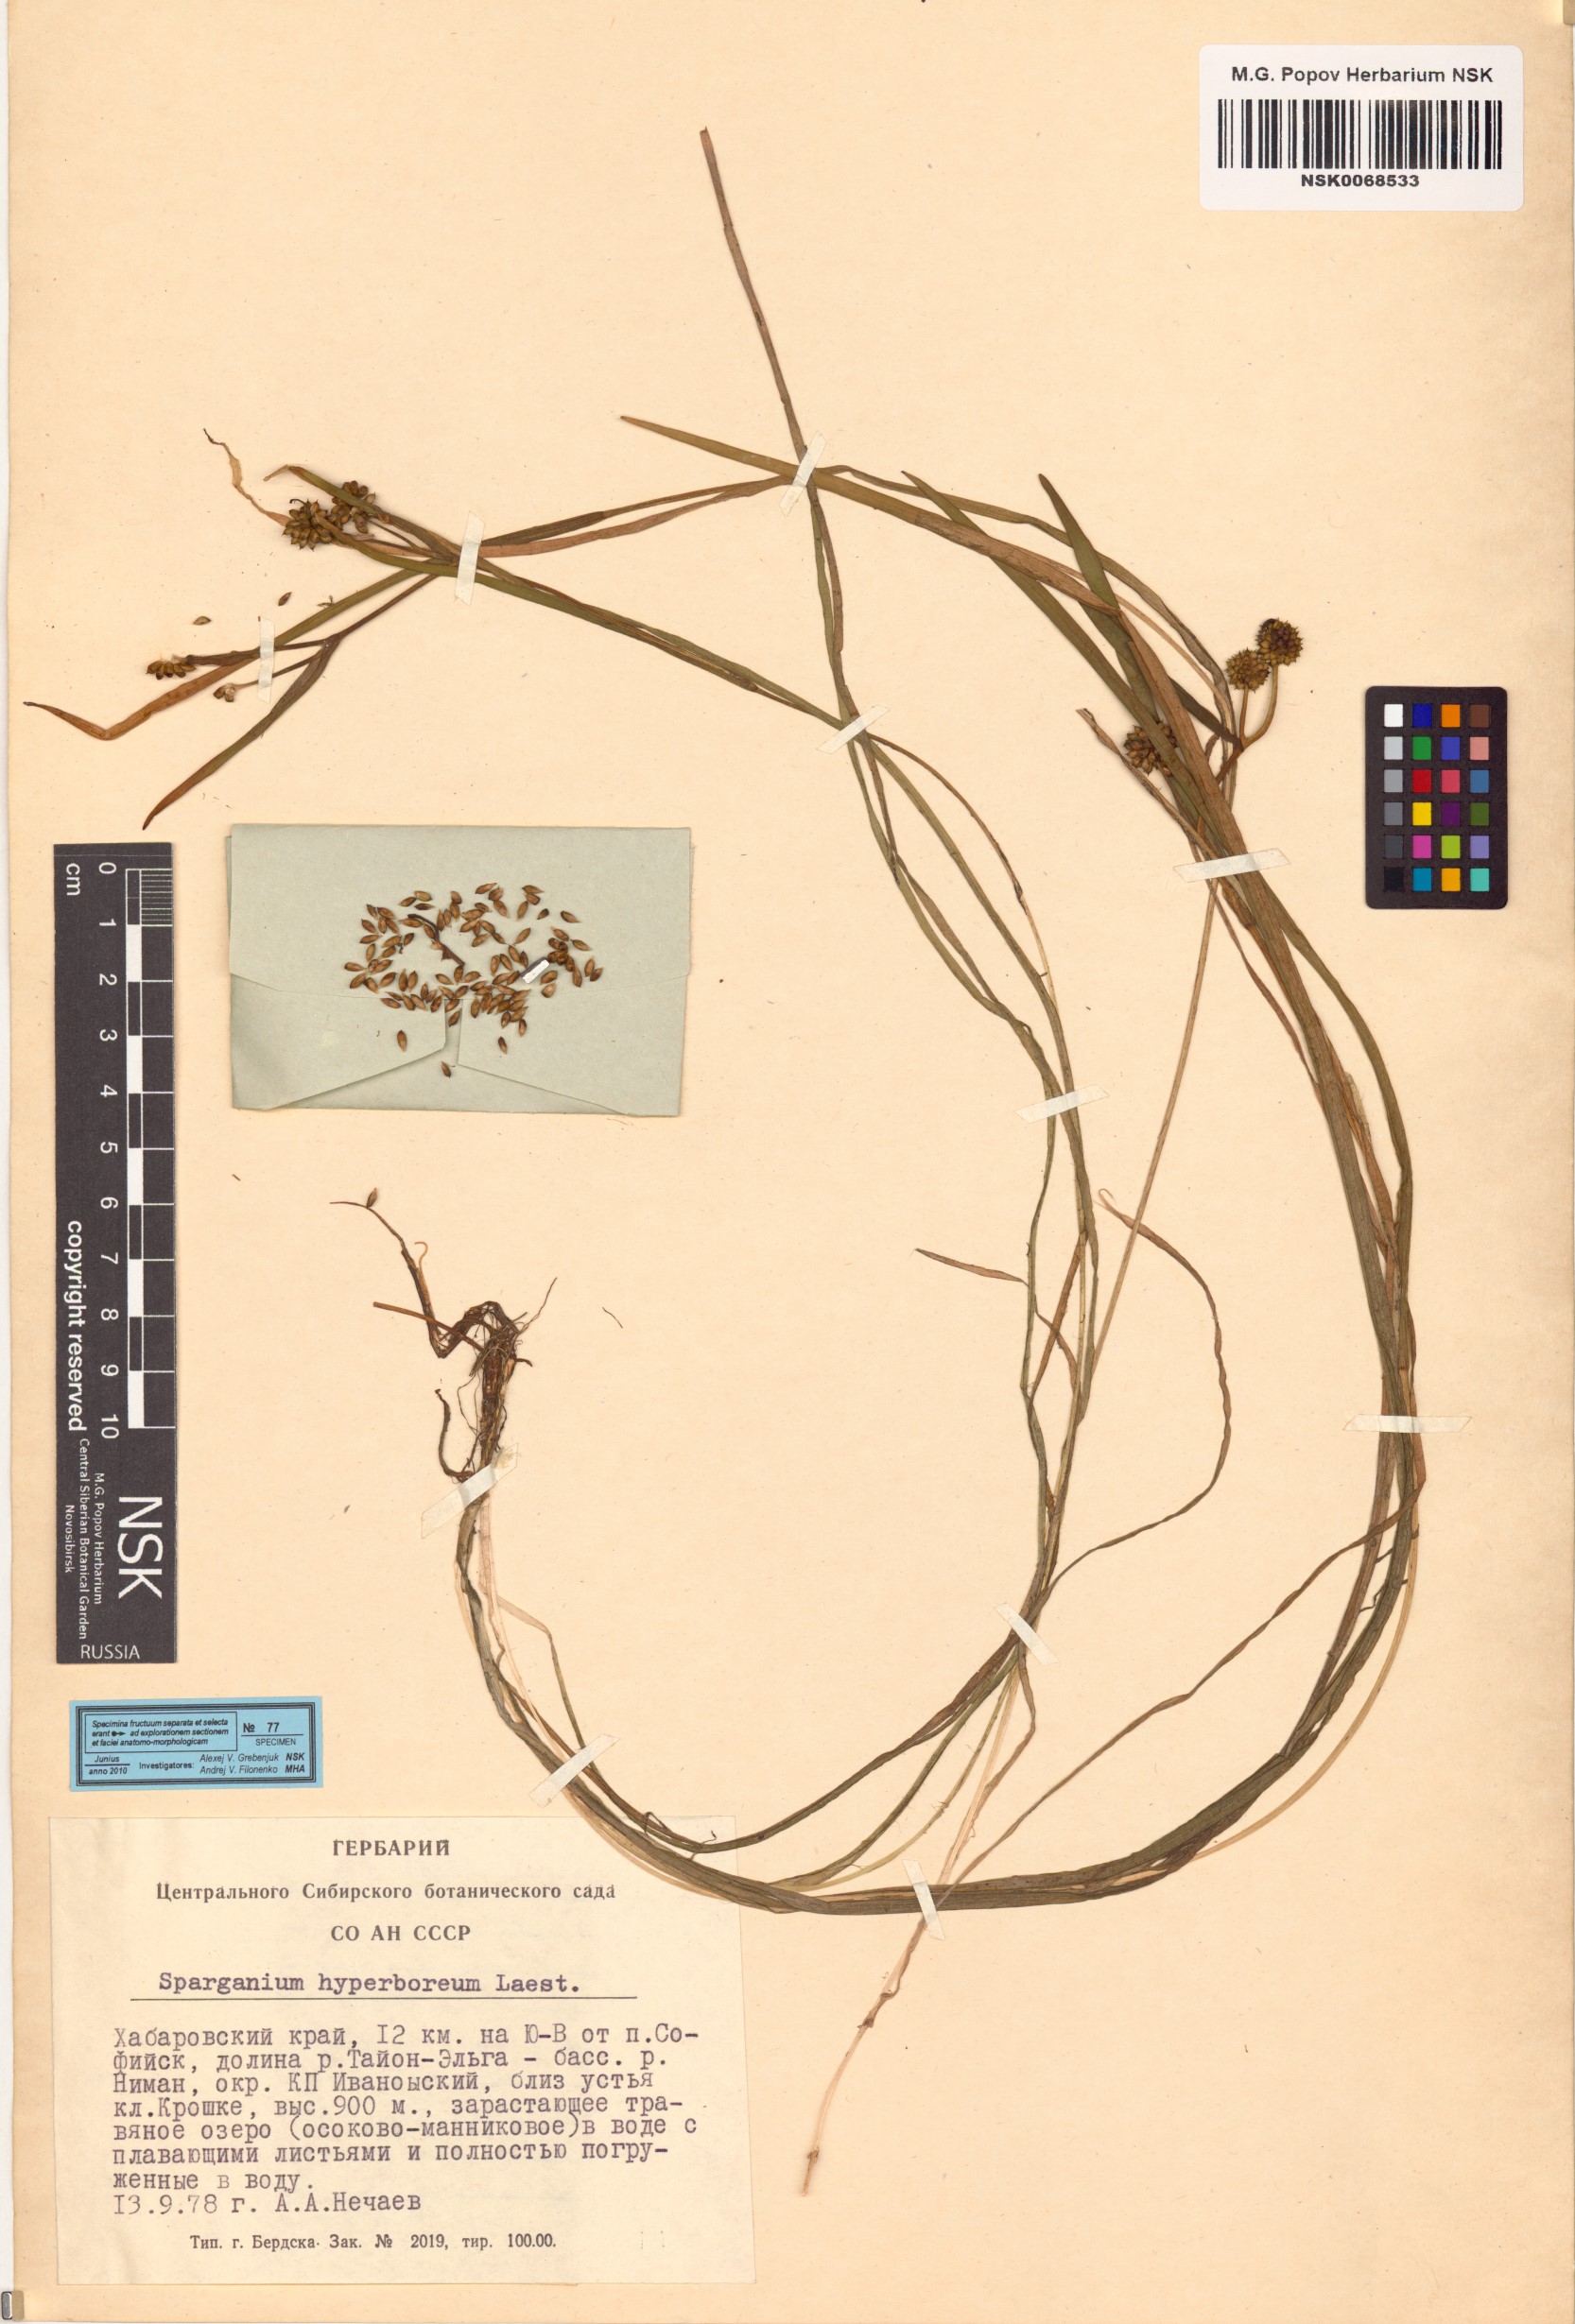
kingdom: Plantae
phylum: Tracheophyta
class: Liliopsida
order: Poales
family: Typhaceae
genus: Sparganium
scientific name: Sparganium hyperboreum
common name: Arctic burreed
